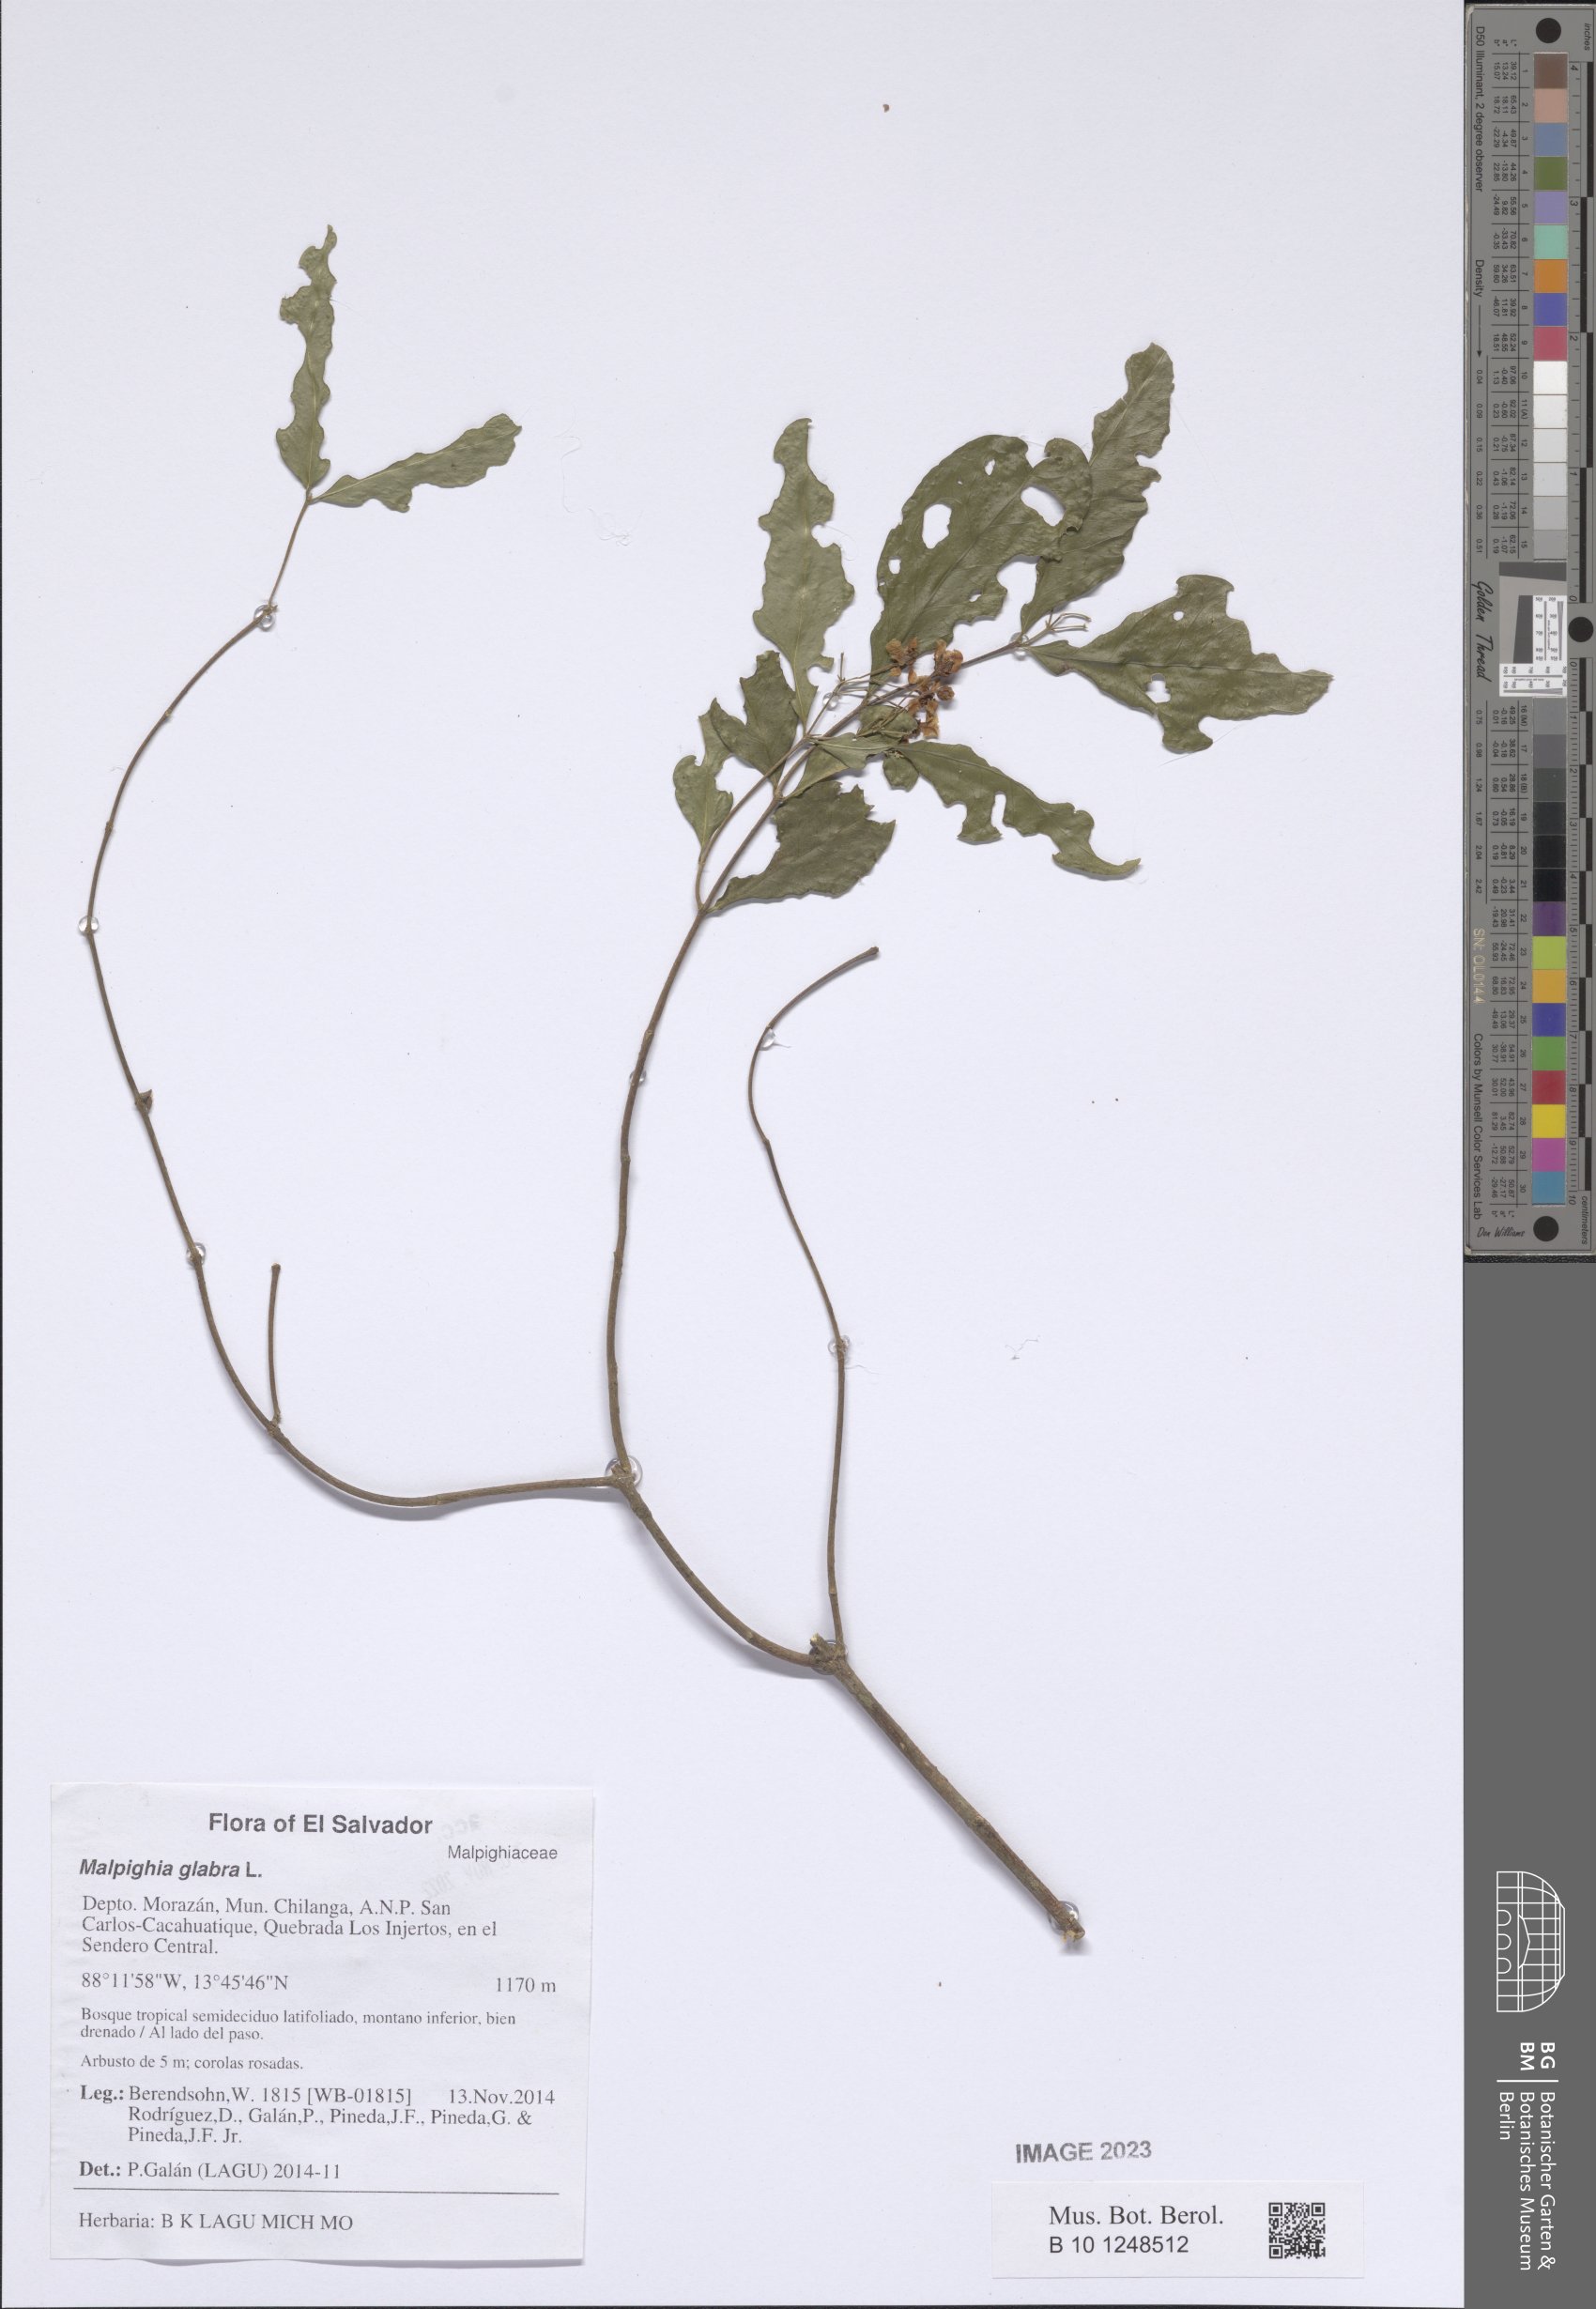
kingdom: Plantae
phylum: Tracheophyta
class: Magnoliopsida
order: Malpighiales
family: Malpighiaceae
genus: Malpighia
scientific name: Malpighia glabra
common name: Barbados cherry
